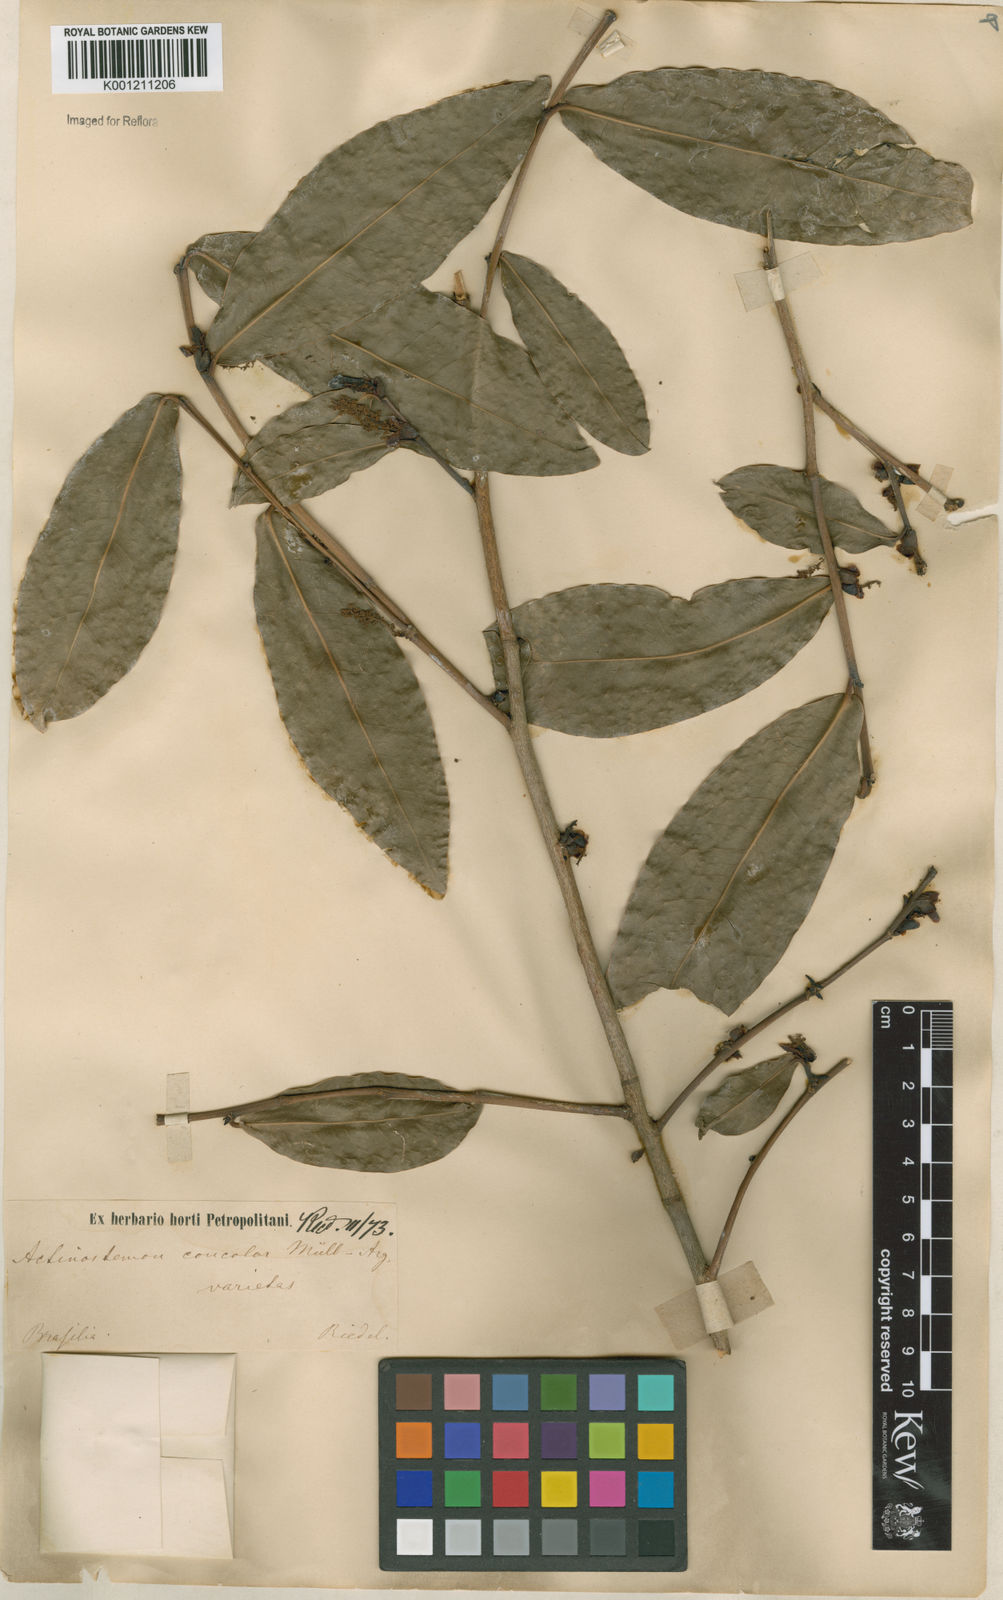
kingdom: Plantae
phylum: Tracheophyta
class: Magnoliopsida
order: Malpighiales
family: Euphorbiaceae
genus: Actinostemon
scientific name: Actinostemon
